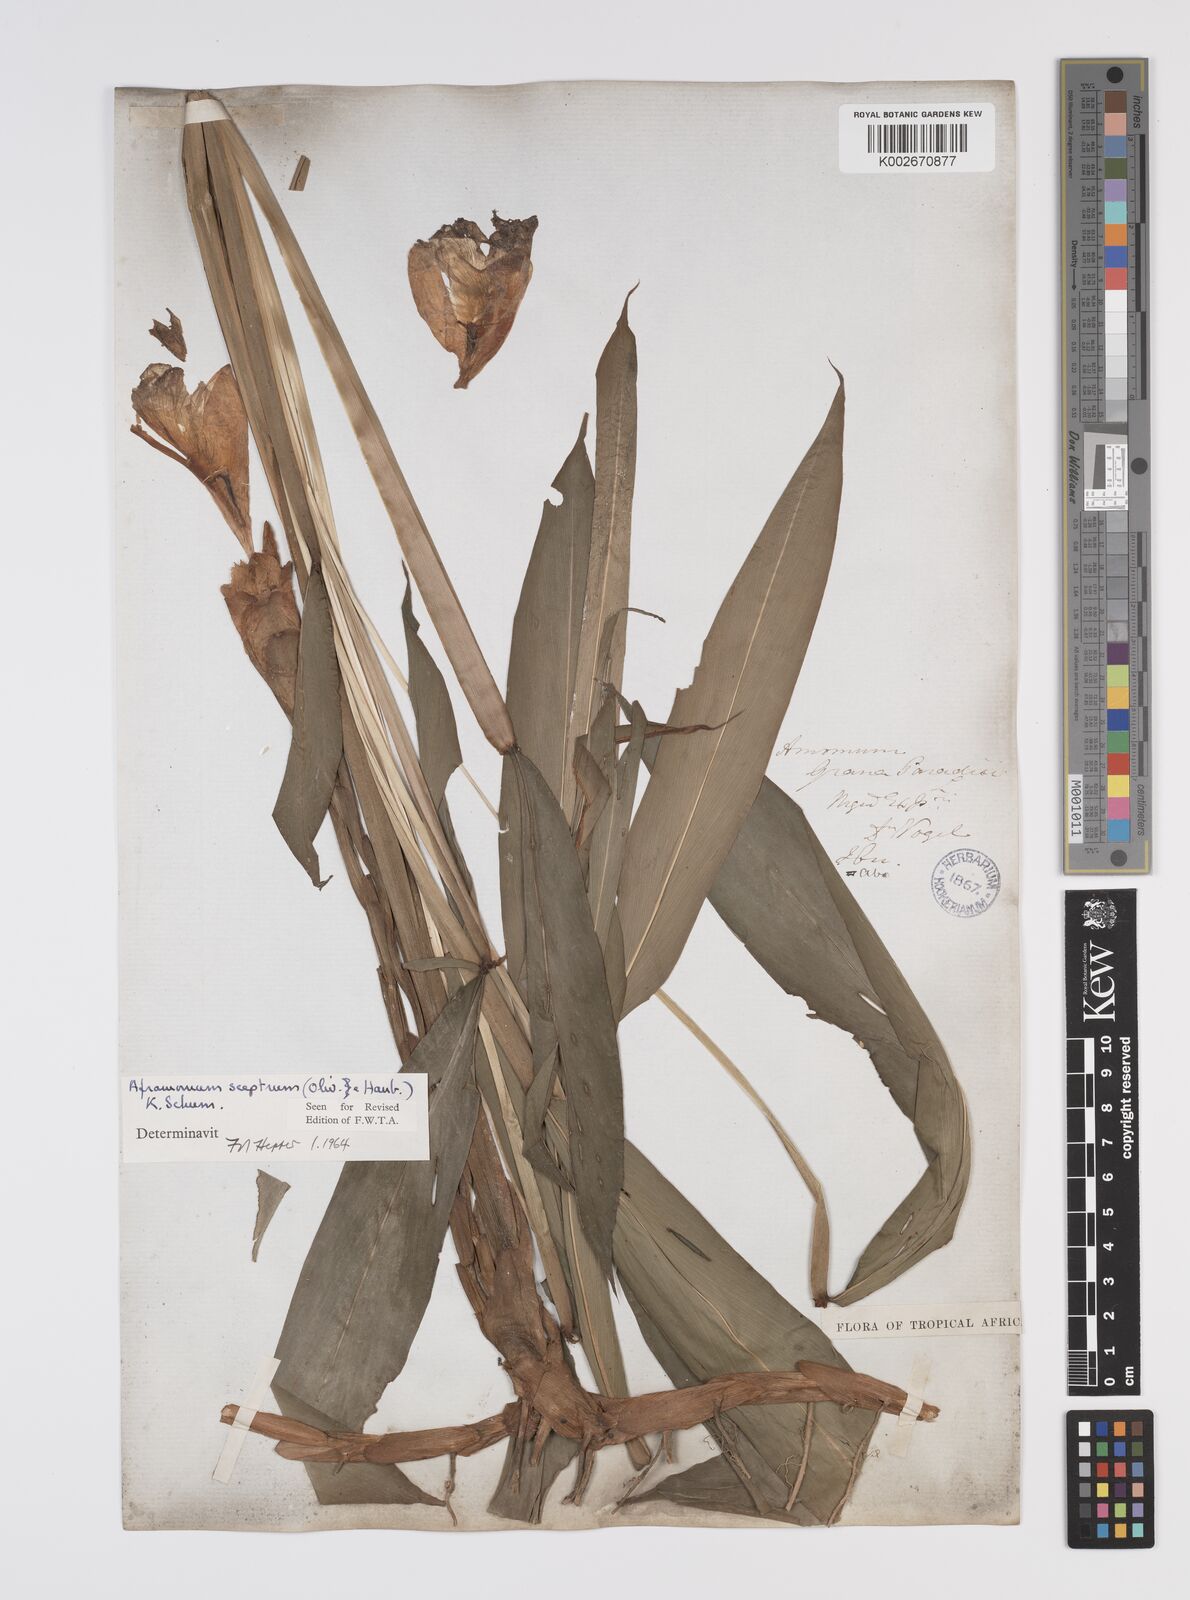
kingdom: Plantae
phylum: Tracheophyta
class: Liliopsida
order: Zingiberales
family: Zingiberaceae
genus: Aframomum
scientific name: Aframomum cereum
